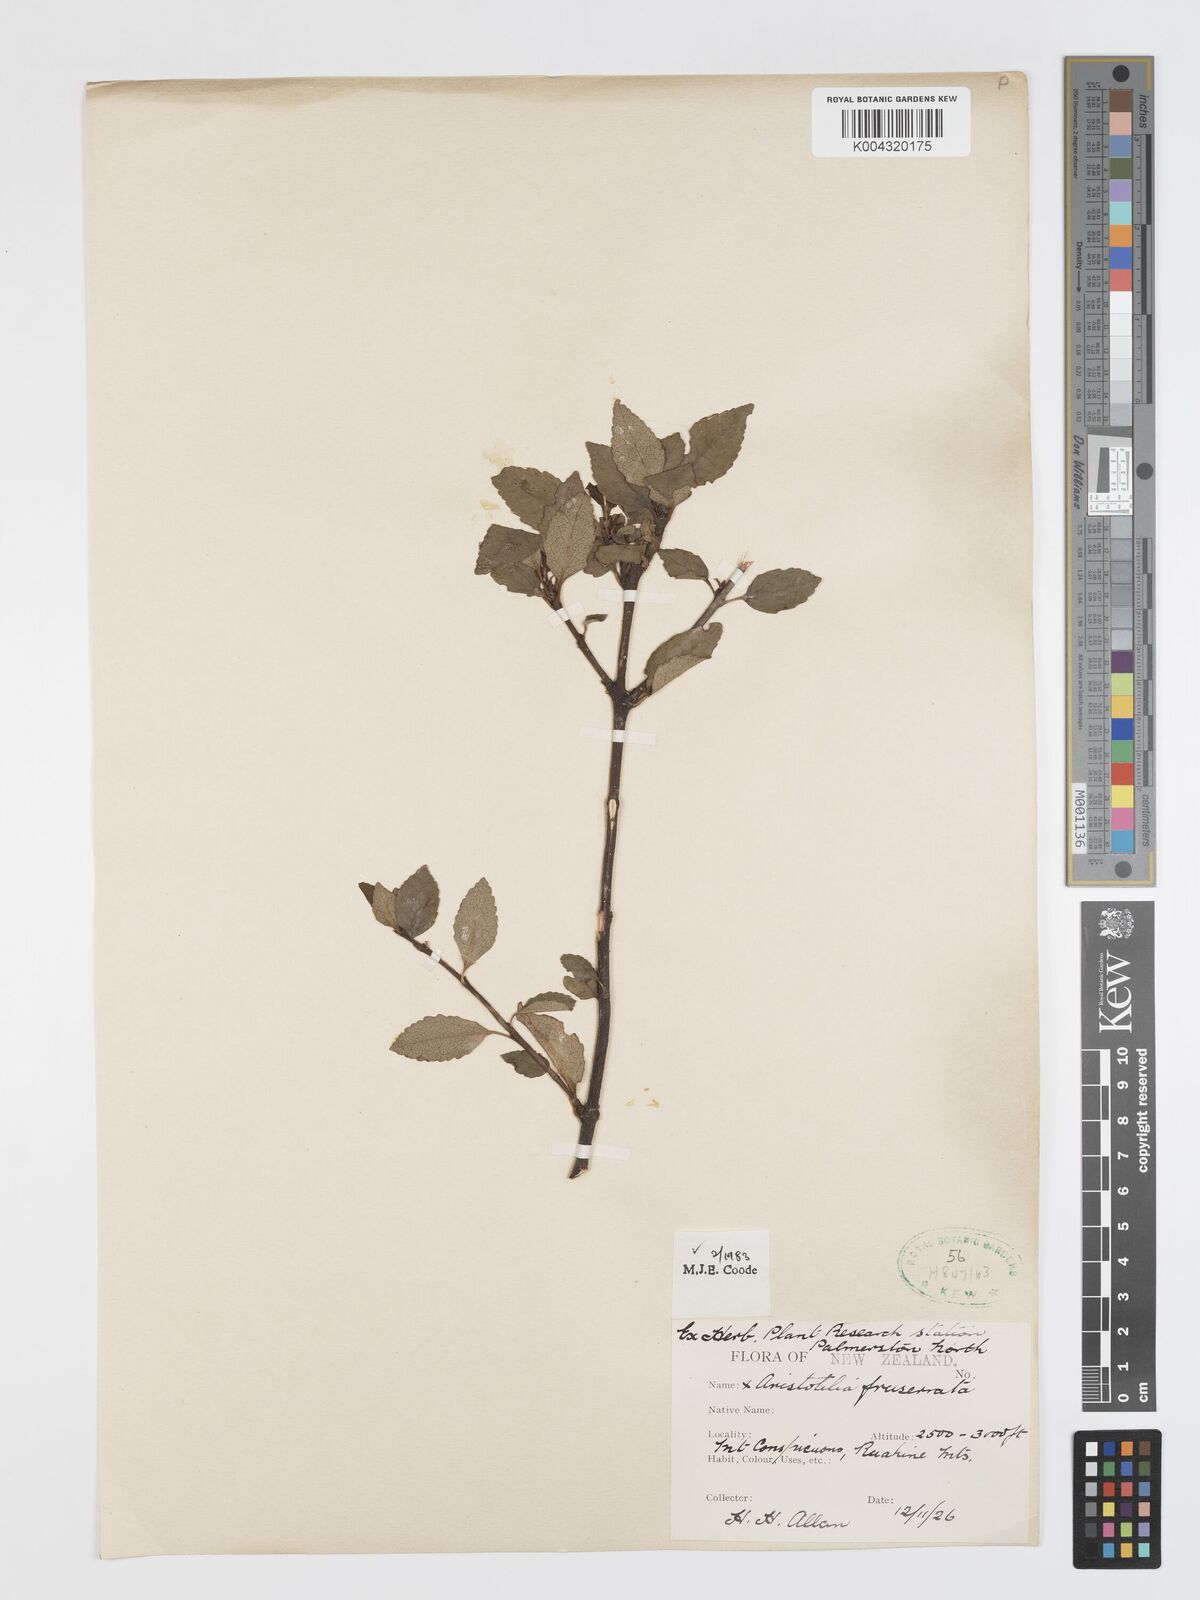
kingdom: Plantae
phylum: Tracheophyta
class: Magnoliopsida
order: Oxalidales
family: Elaeocarpaceae
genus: Aristotelia
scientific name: Aristotelia fruticosa
